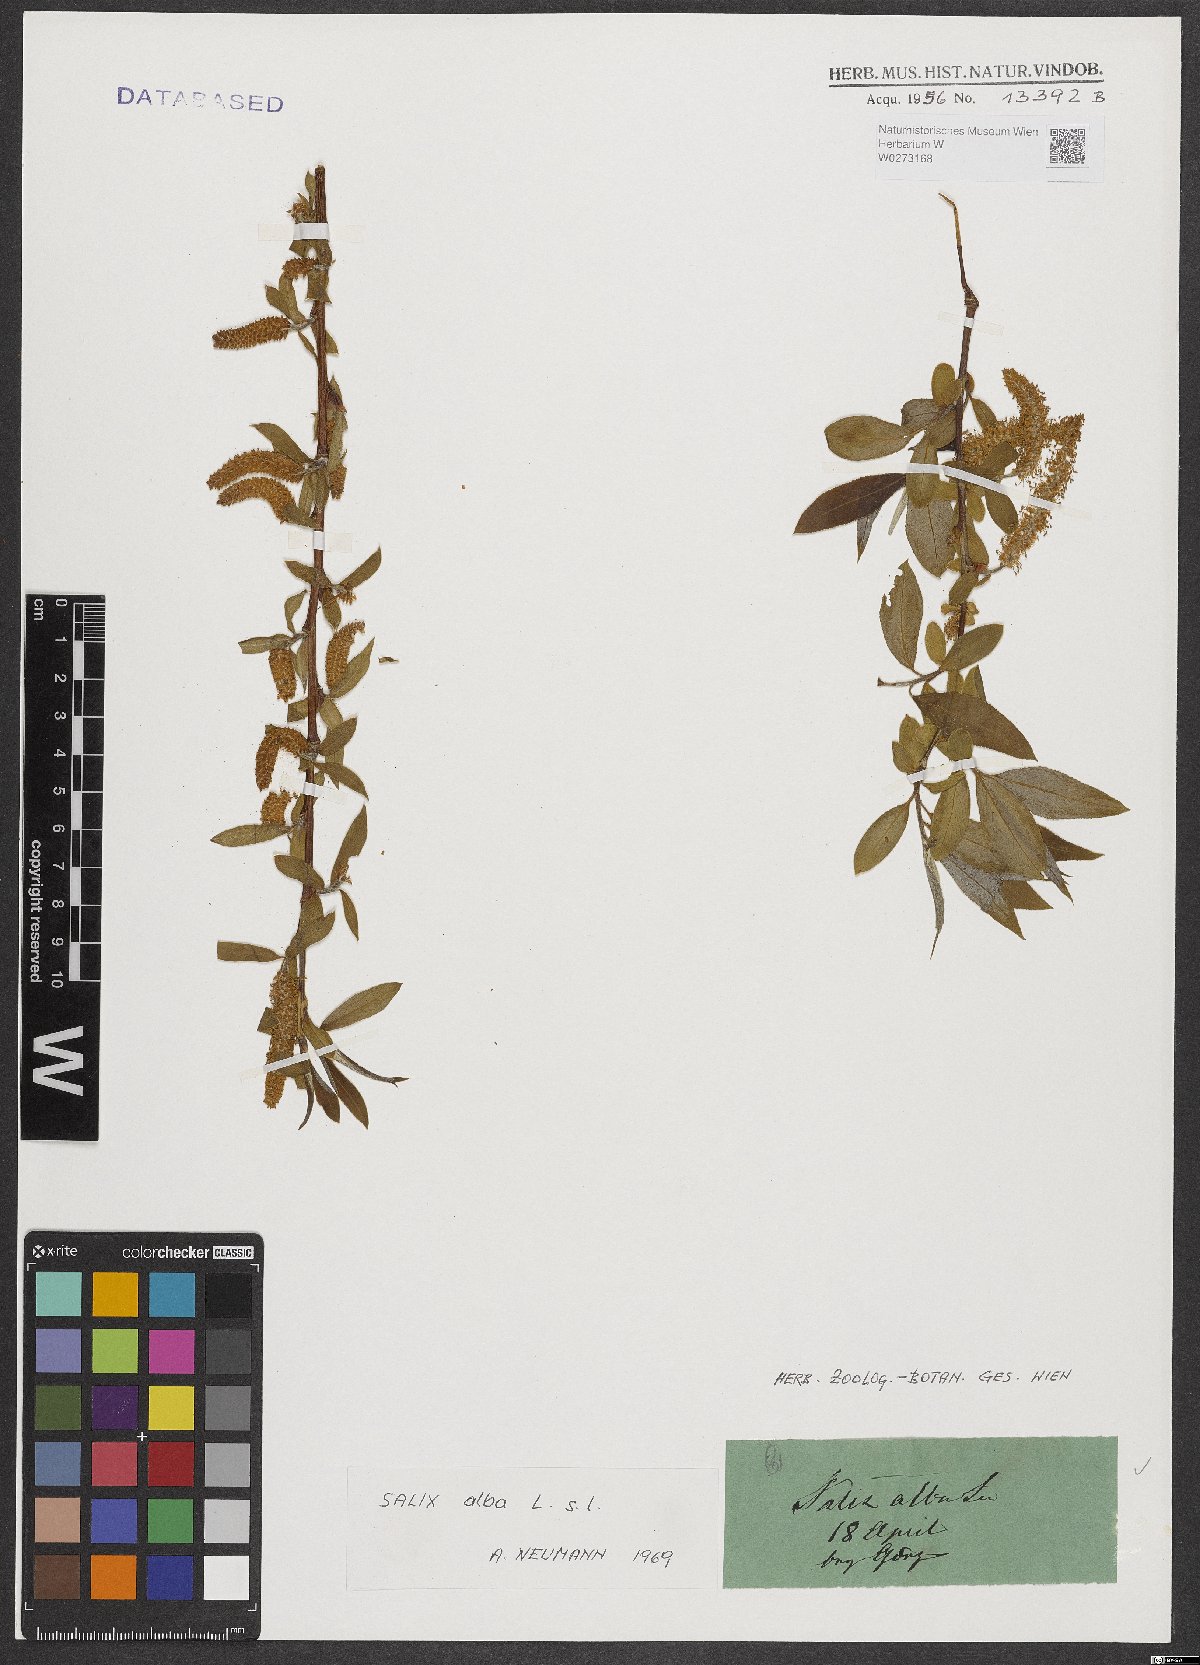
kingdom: Plantae
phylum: Tracheophyta
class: Magnoliopsida
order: Malpighiales
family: Salicaceae
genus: Salix
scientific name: Salix alba
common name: White willow
